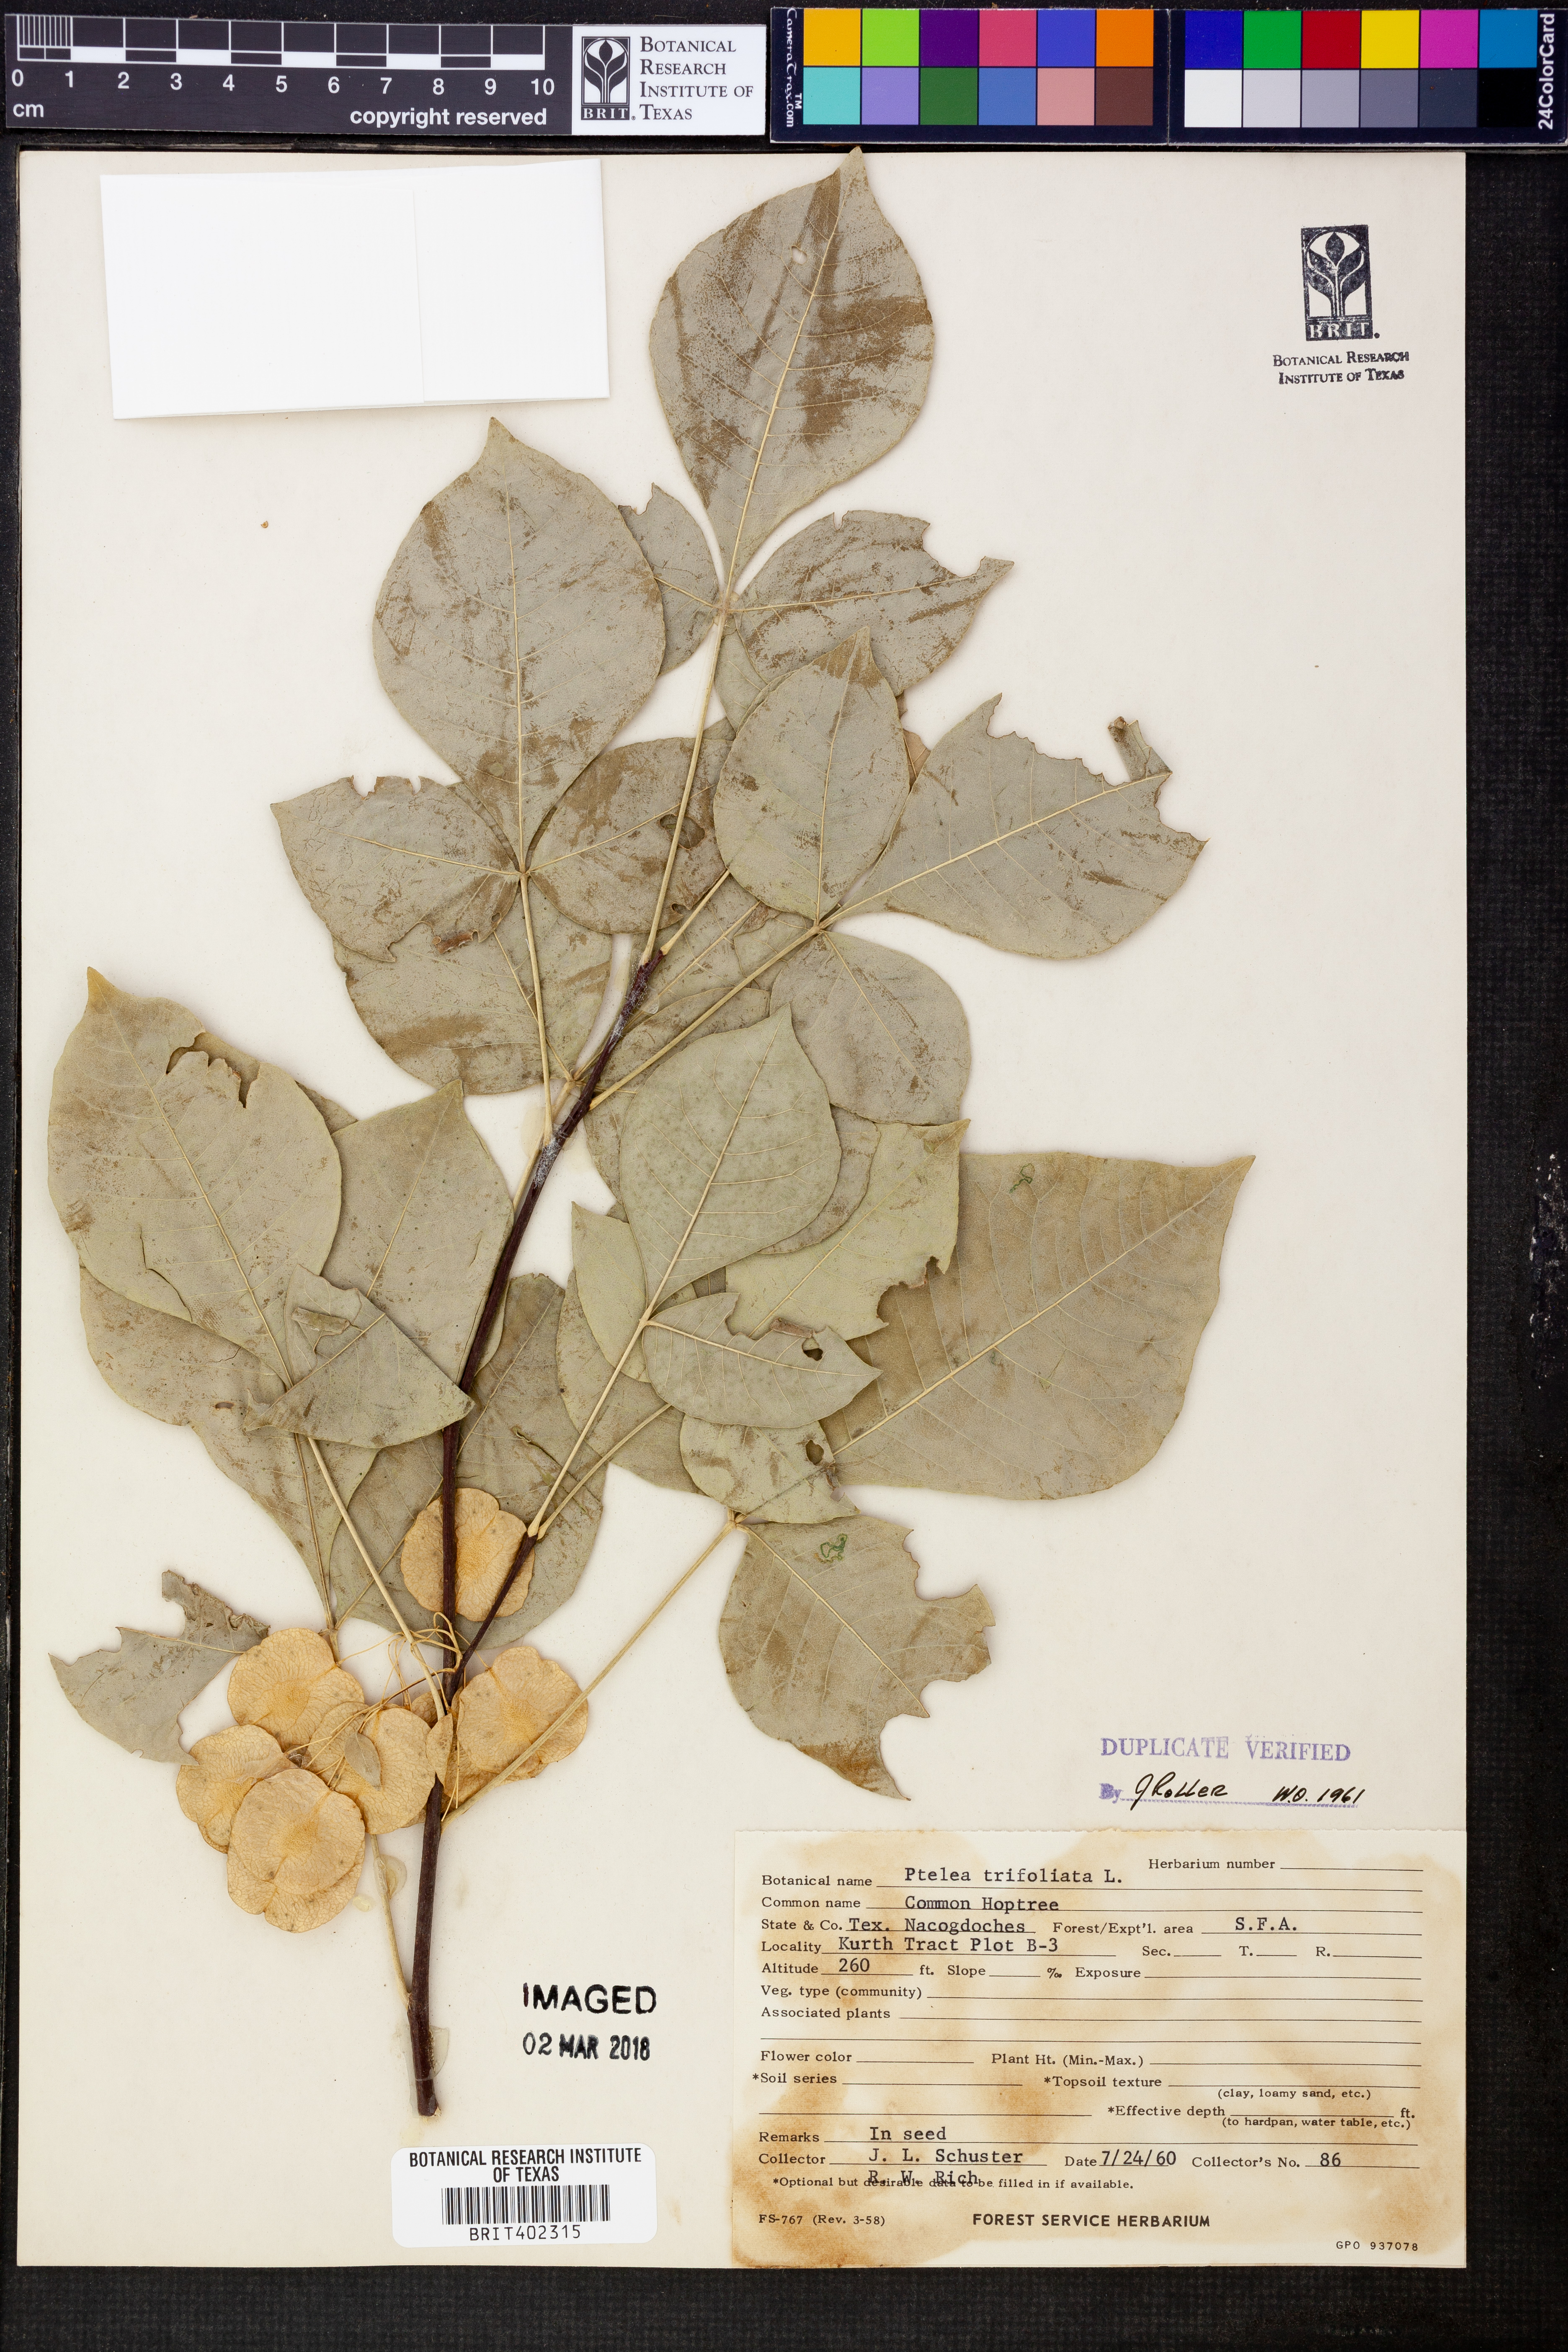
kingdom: Plantae
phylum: Tracheophyta
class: Magnoliopsida
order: Sapindales
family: Rutaceae
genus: Ptelea
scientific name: Ptelea trifoliata
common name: Common hop-tree
